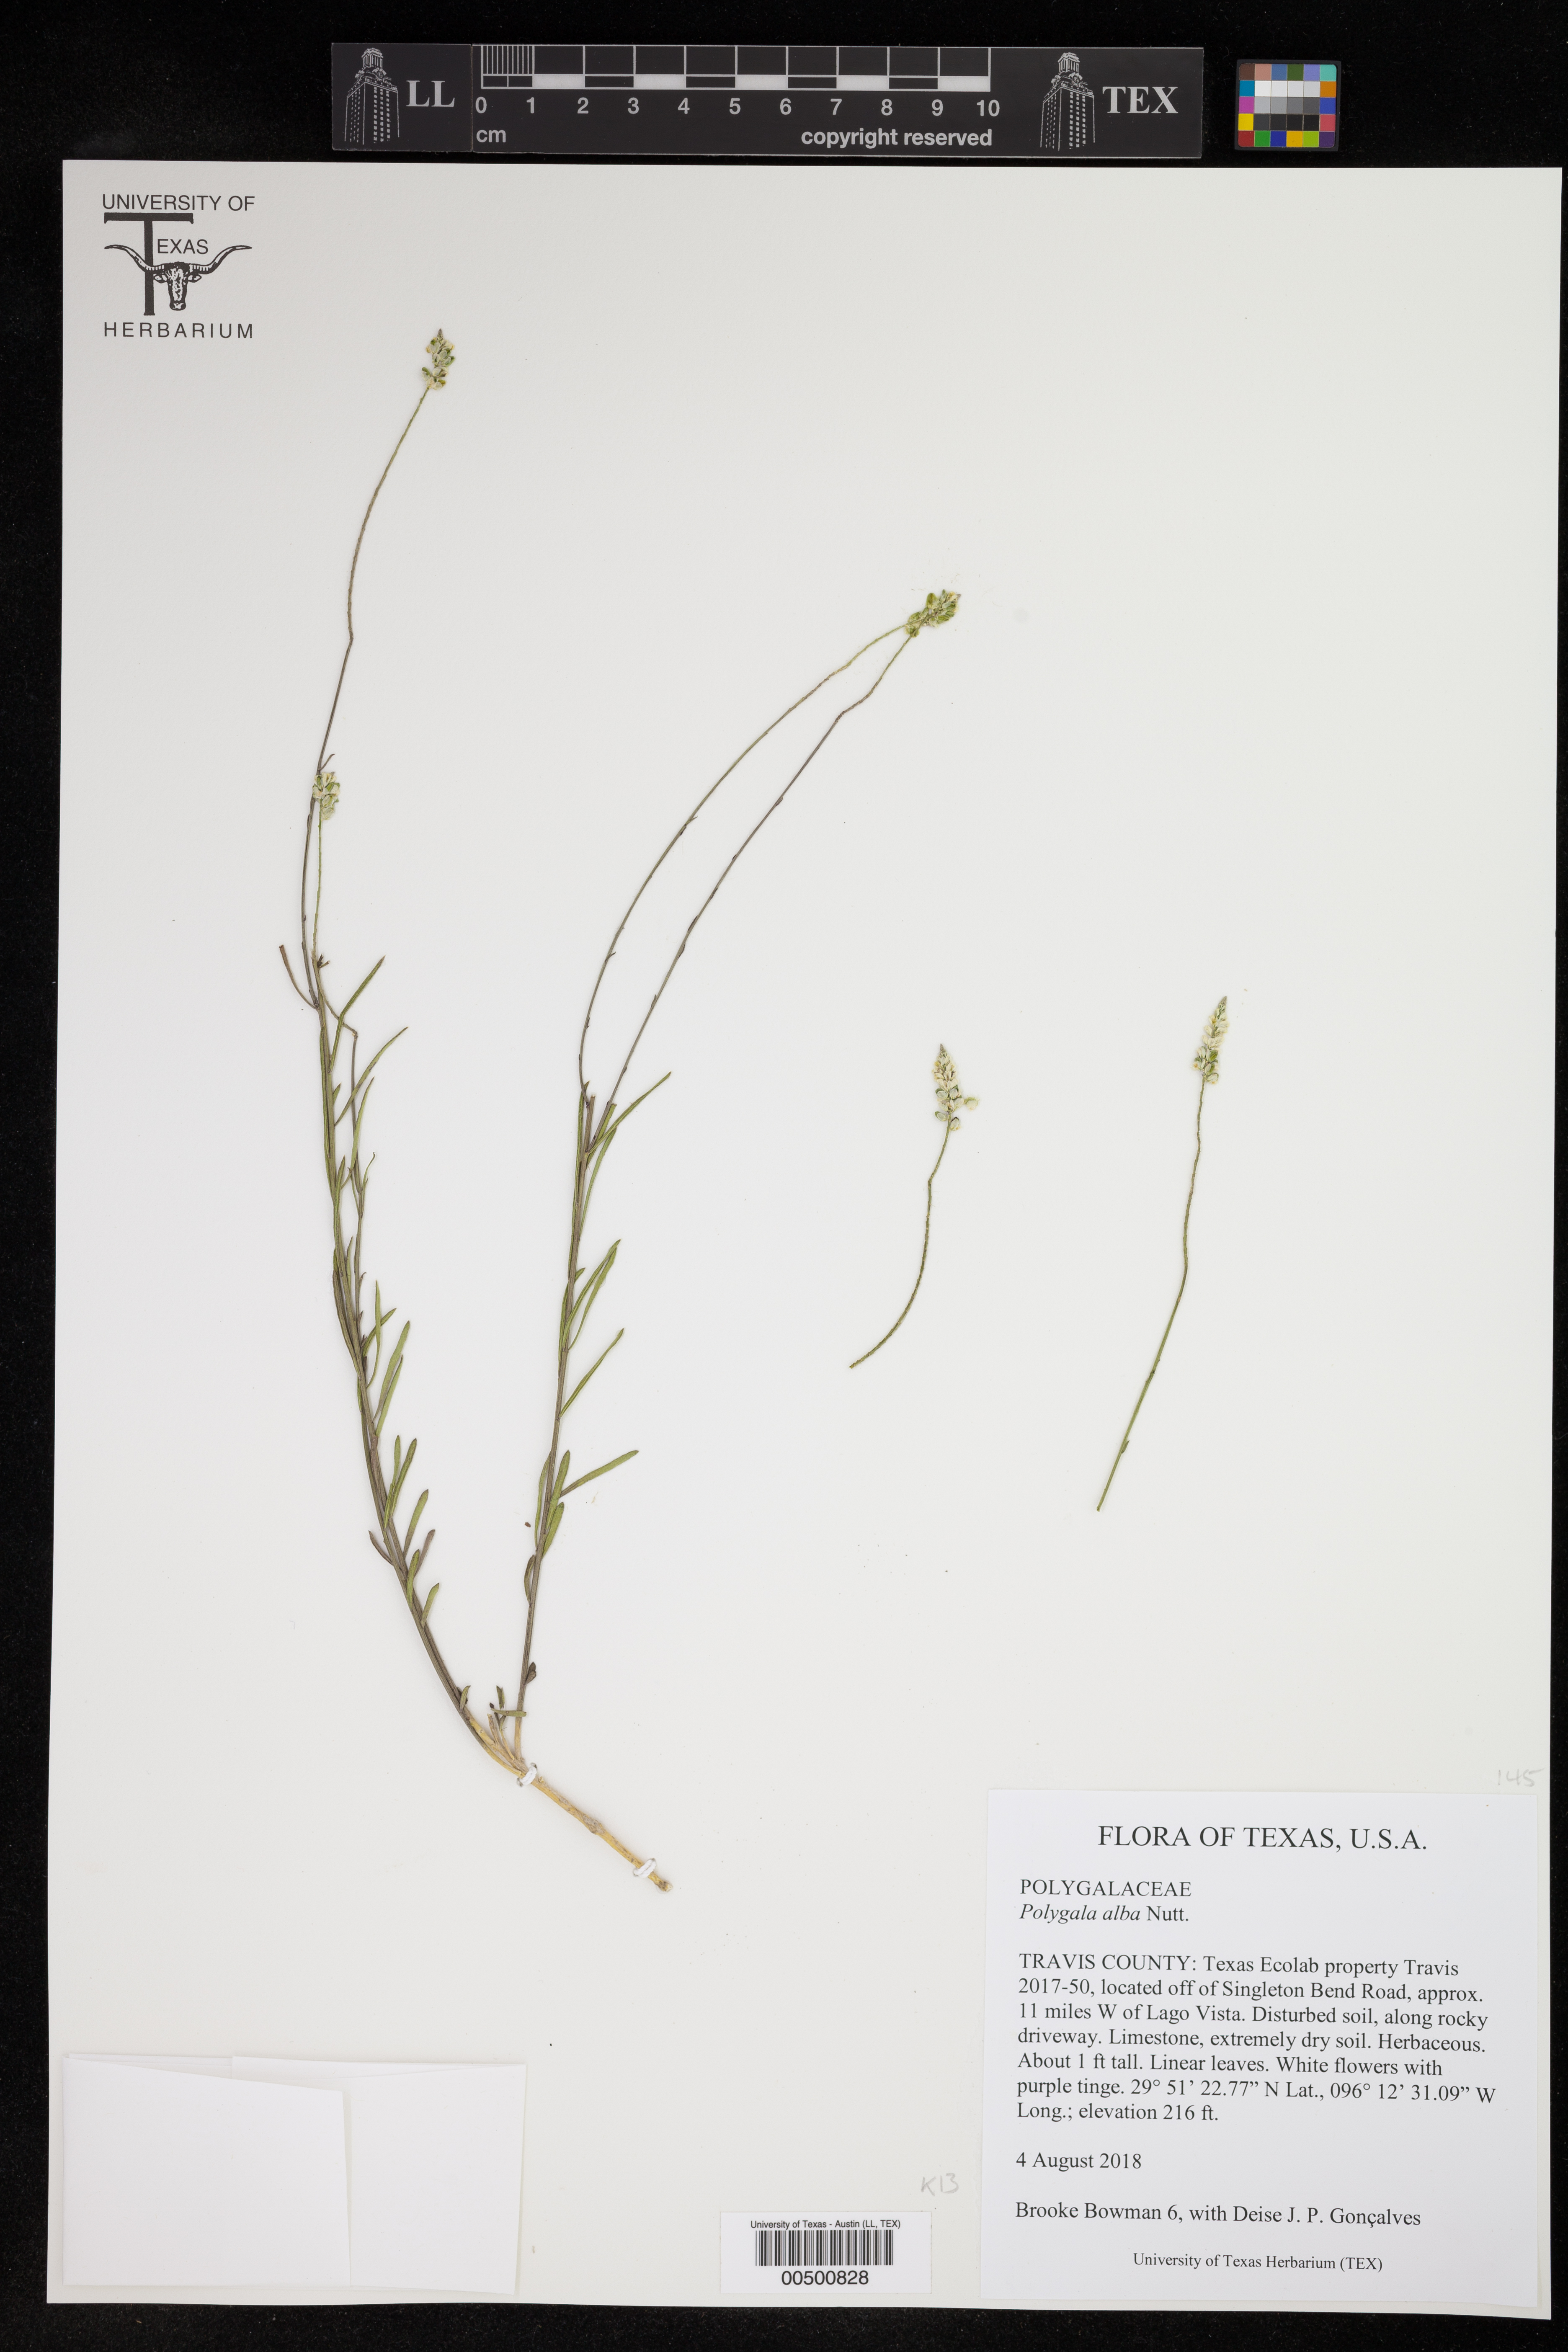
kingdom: Plantae
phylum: Tracheophyta
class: Magnoliopsida
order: Fabales
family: Polygalaceae
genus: Polygala
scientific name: Polygala alba
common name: White milkwort
